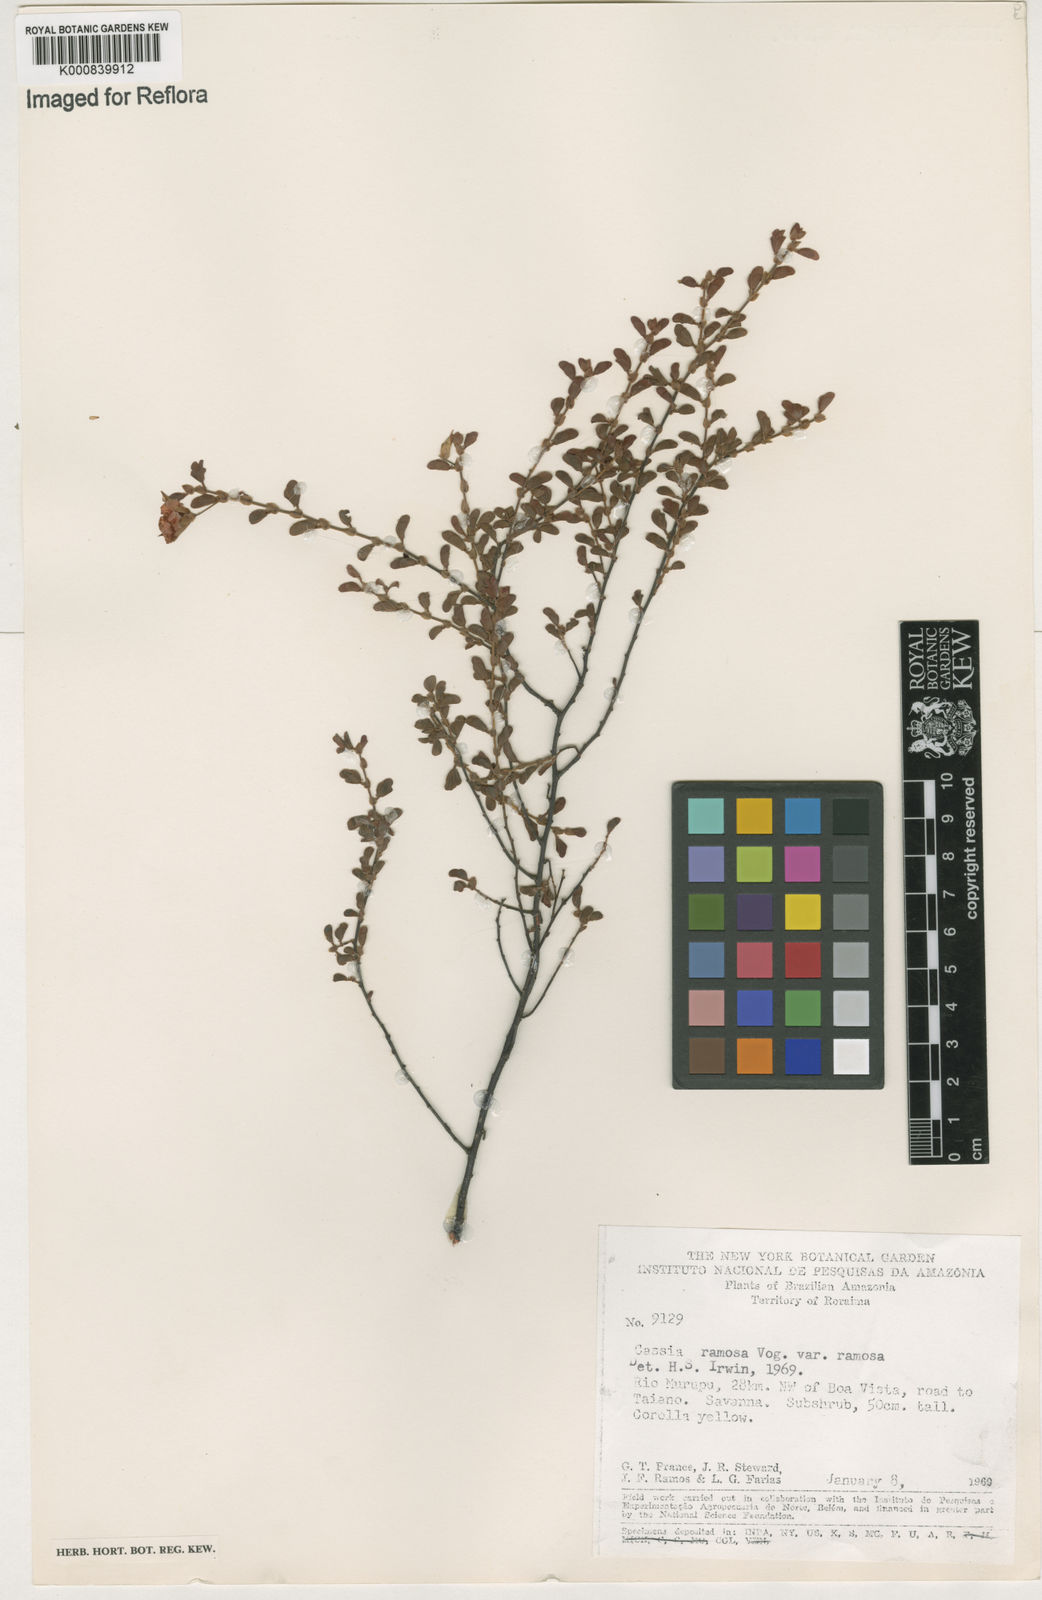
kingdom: Plantae
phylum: Tracheophyta
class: Magnoliopsida
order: Fabales
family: Fabaceae
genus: Chamaecrista
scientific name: Chamaecrista ramosa
